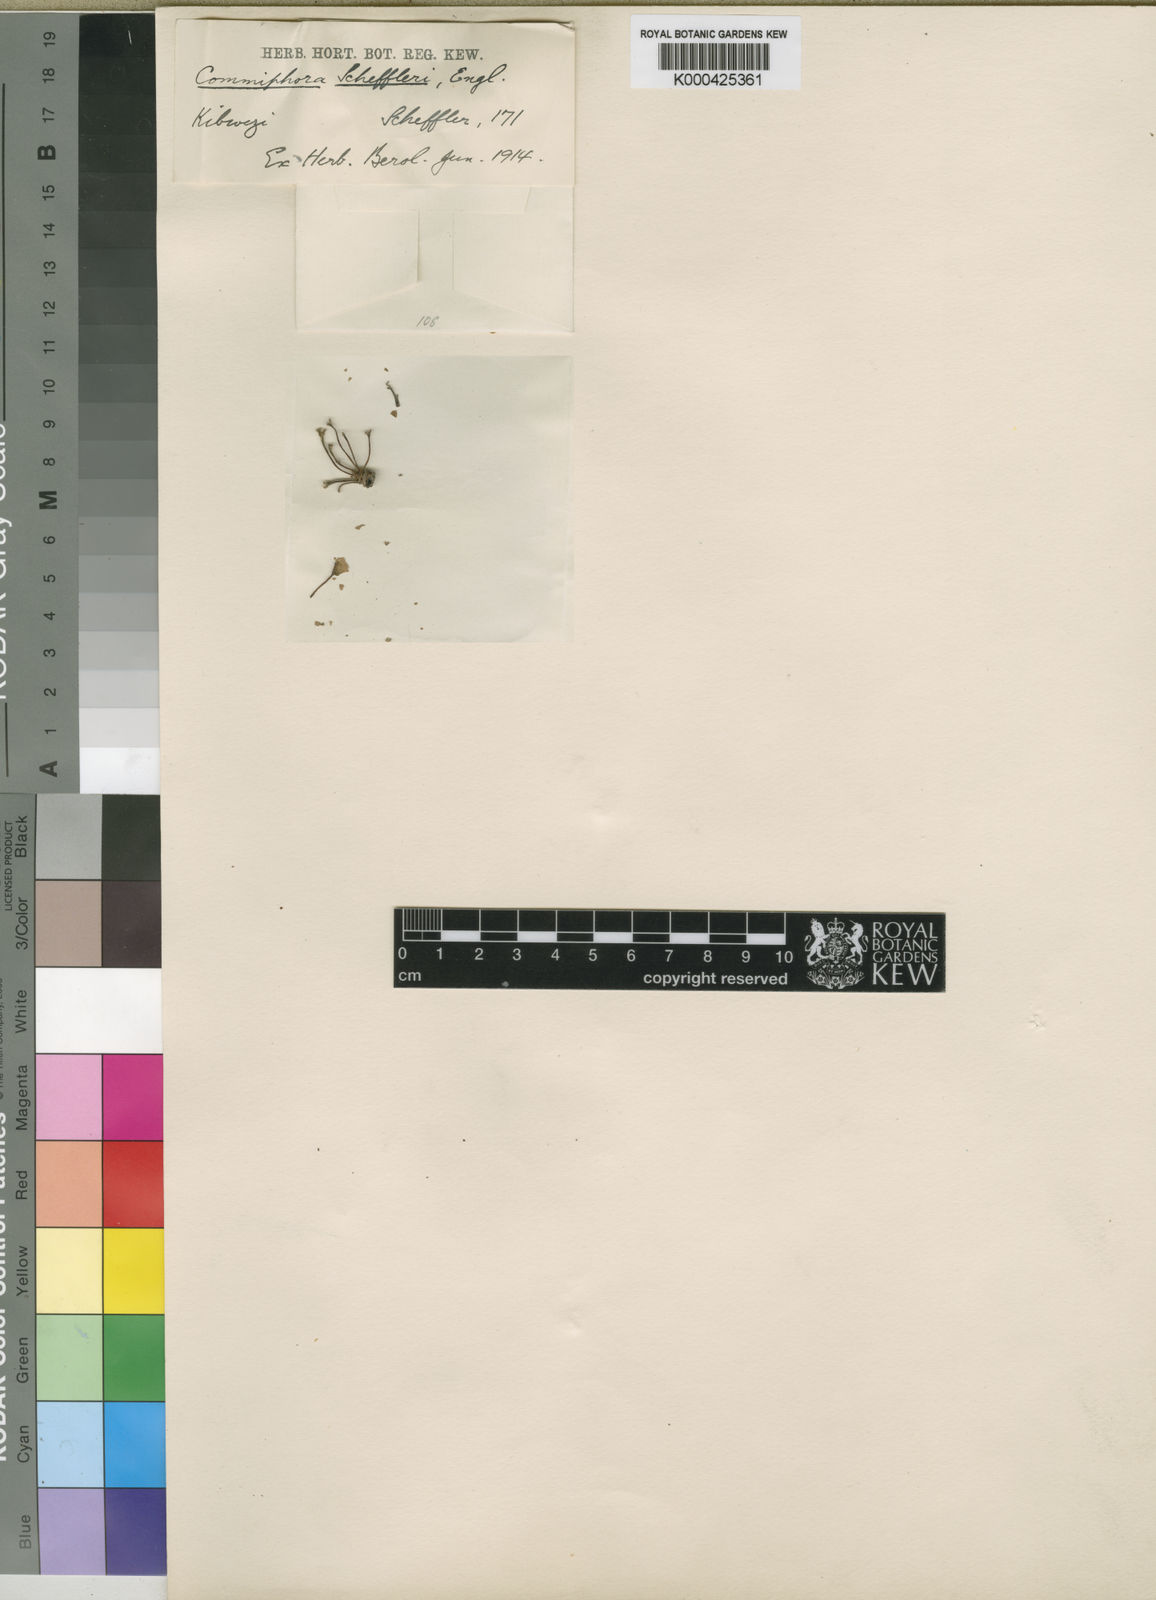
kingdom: Plantae
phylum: Tracheophyta
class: Magnoliopsida
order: Sapindales
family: Burseraceae
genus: Commiphora
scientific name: Commiphora campestris
